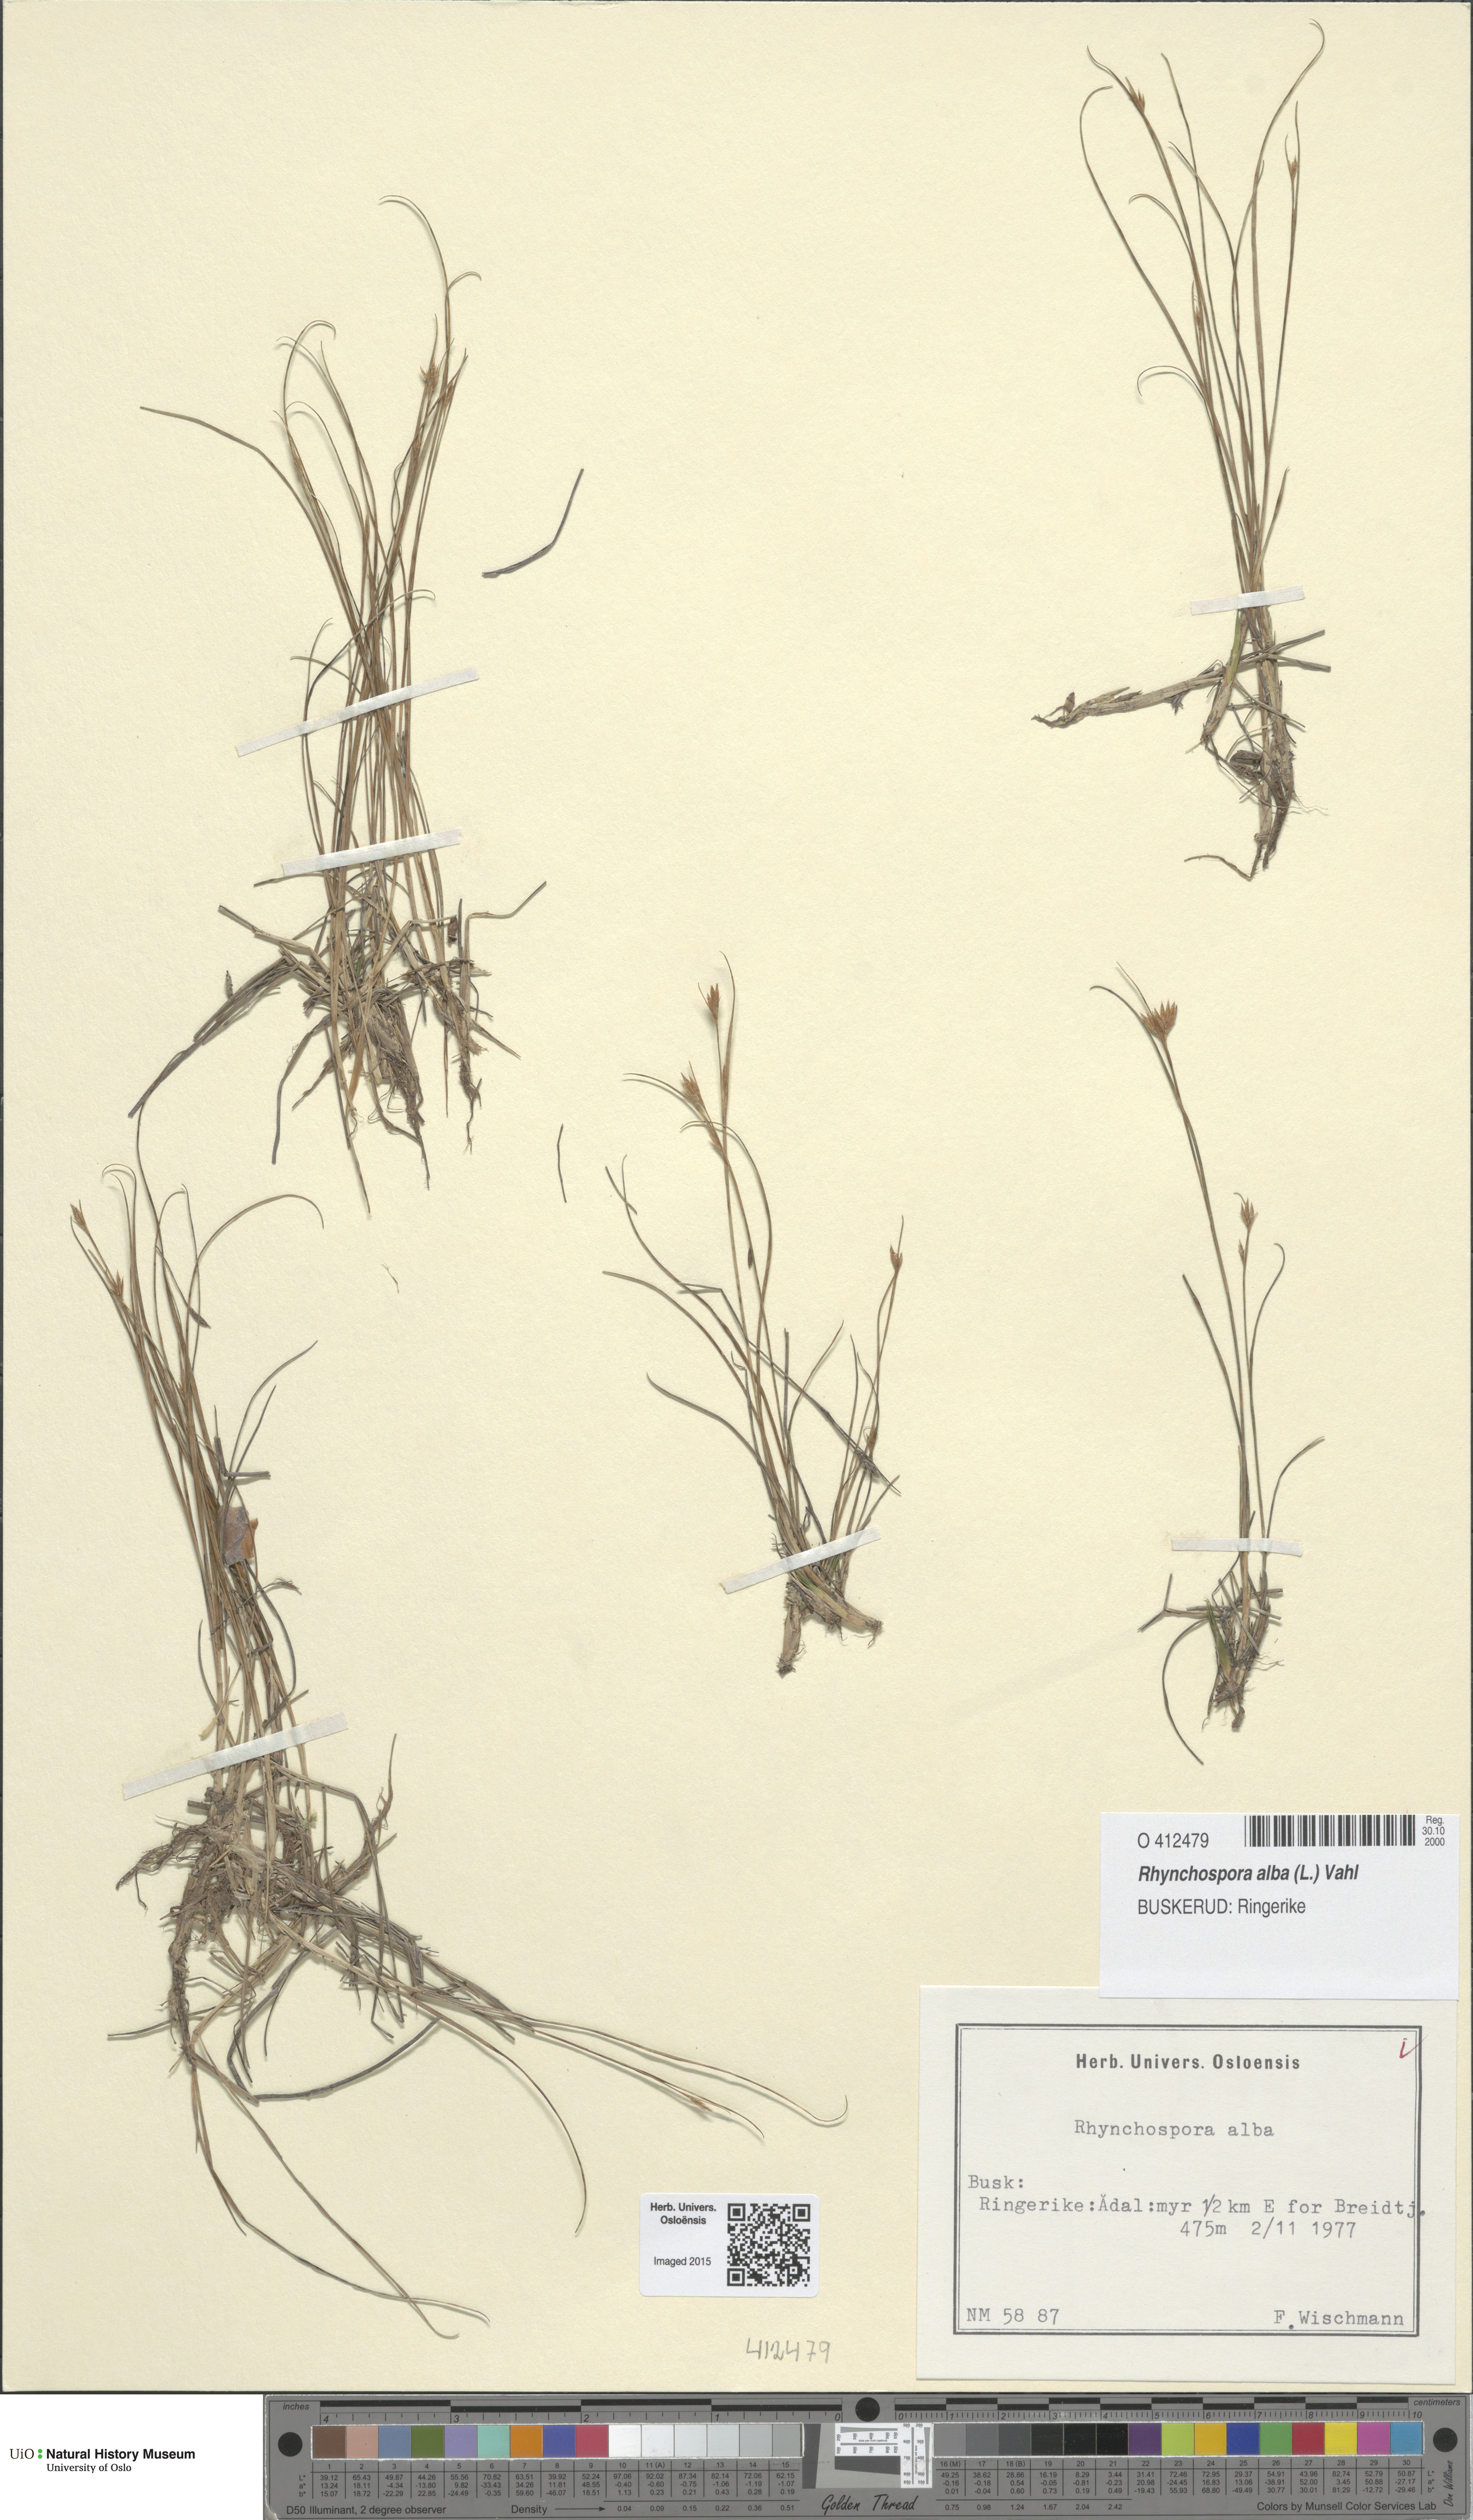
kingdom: Plantae
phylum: Tracheophyta
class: Liliopsida
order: Poales
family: Cyperaceae
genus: Rhynchospora
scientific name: Rhynchospora alba
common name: White beak-sedge
